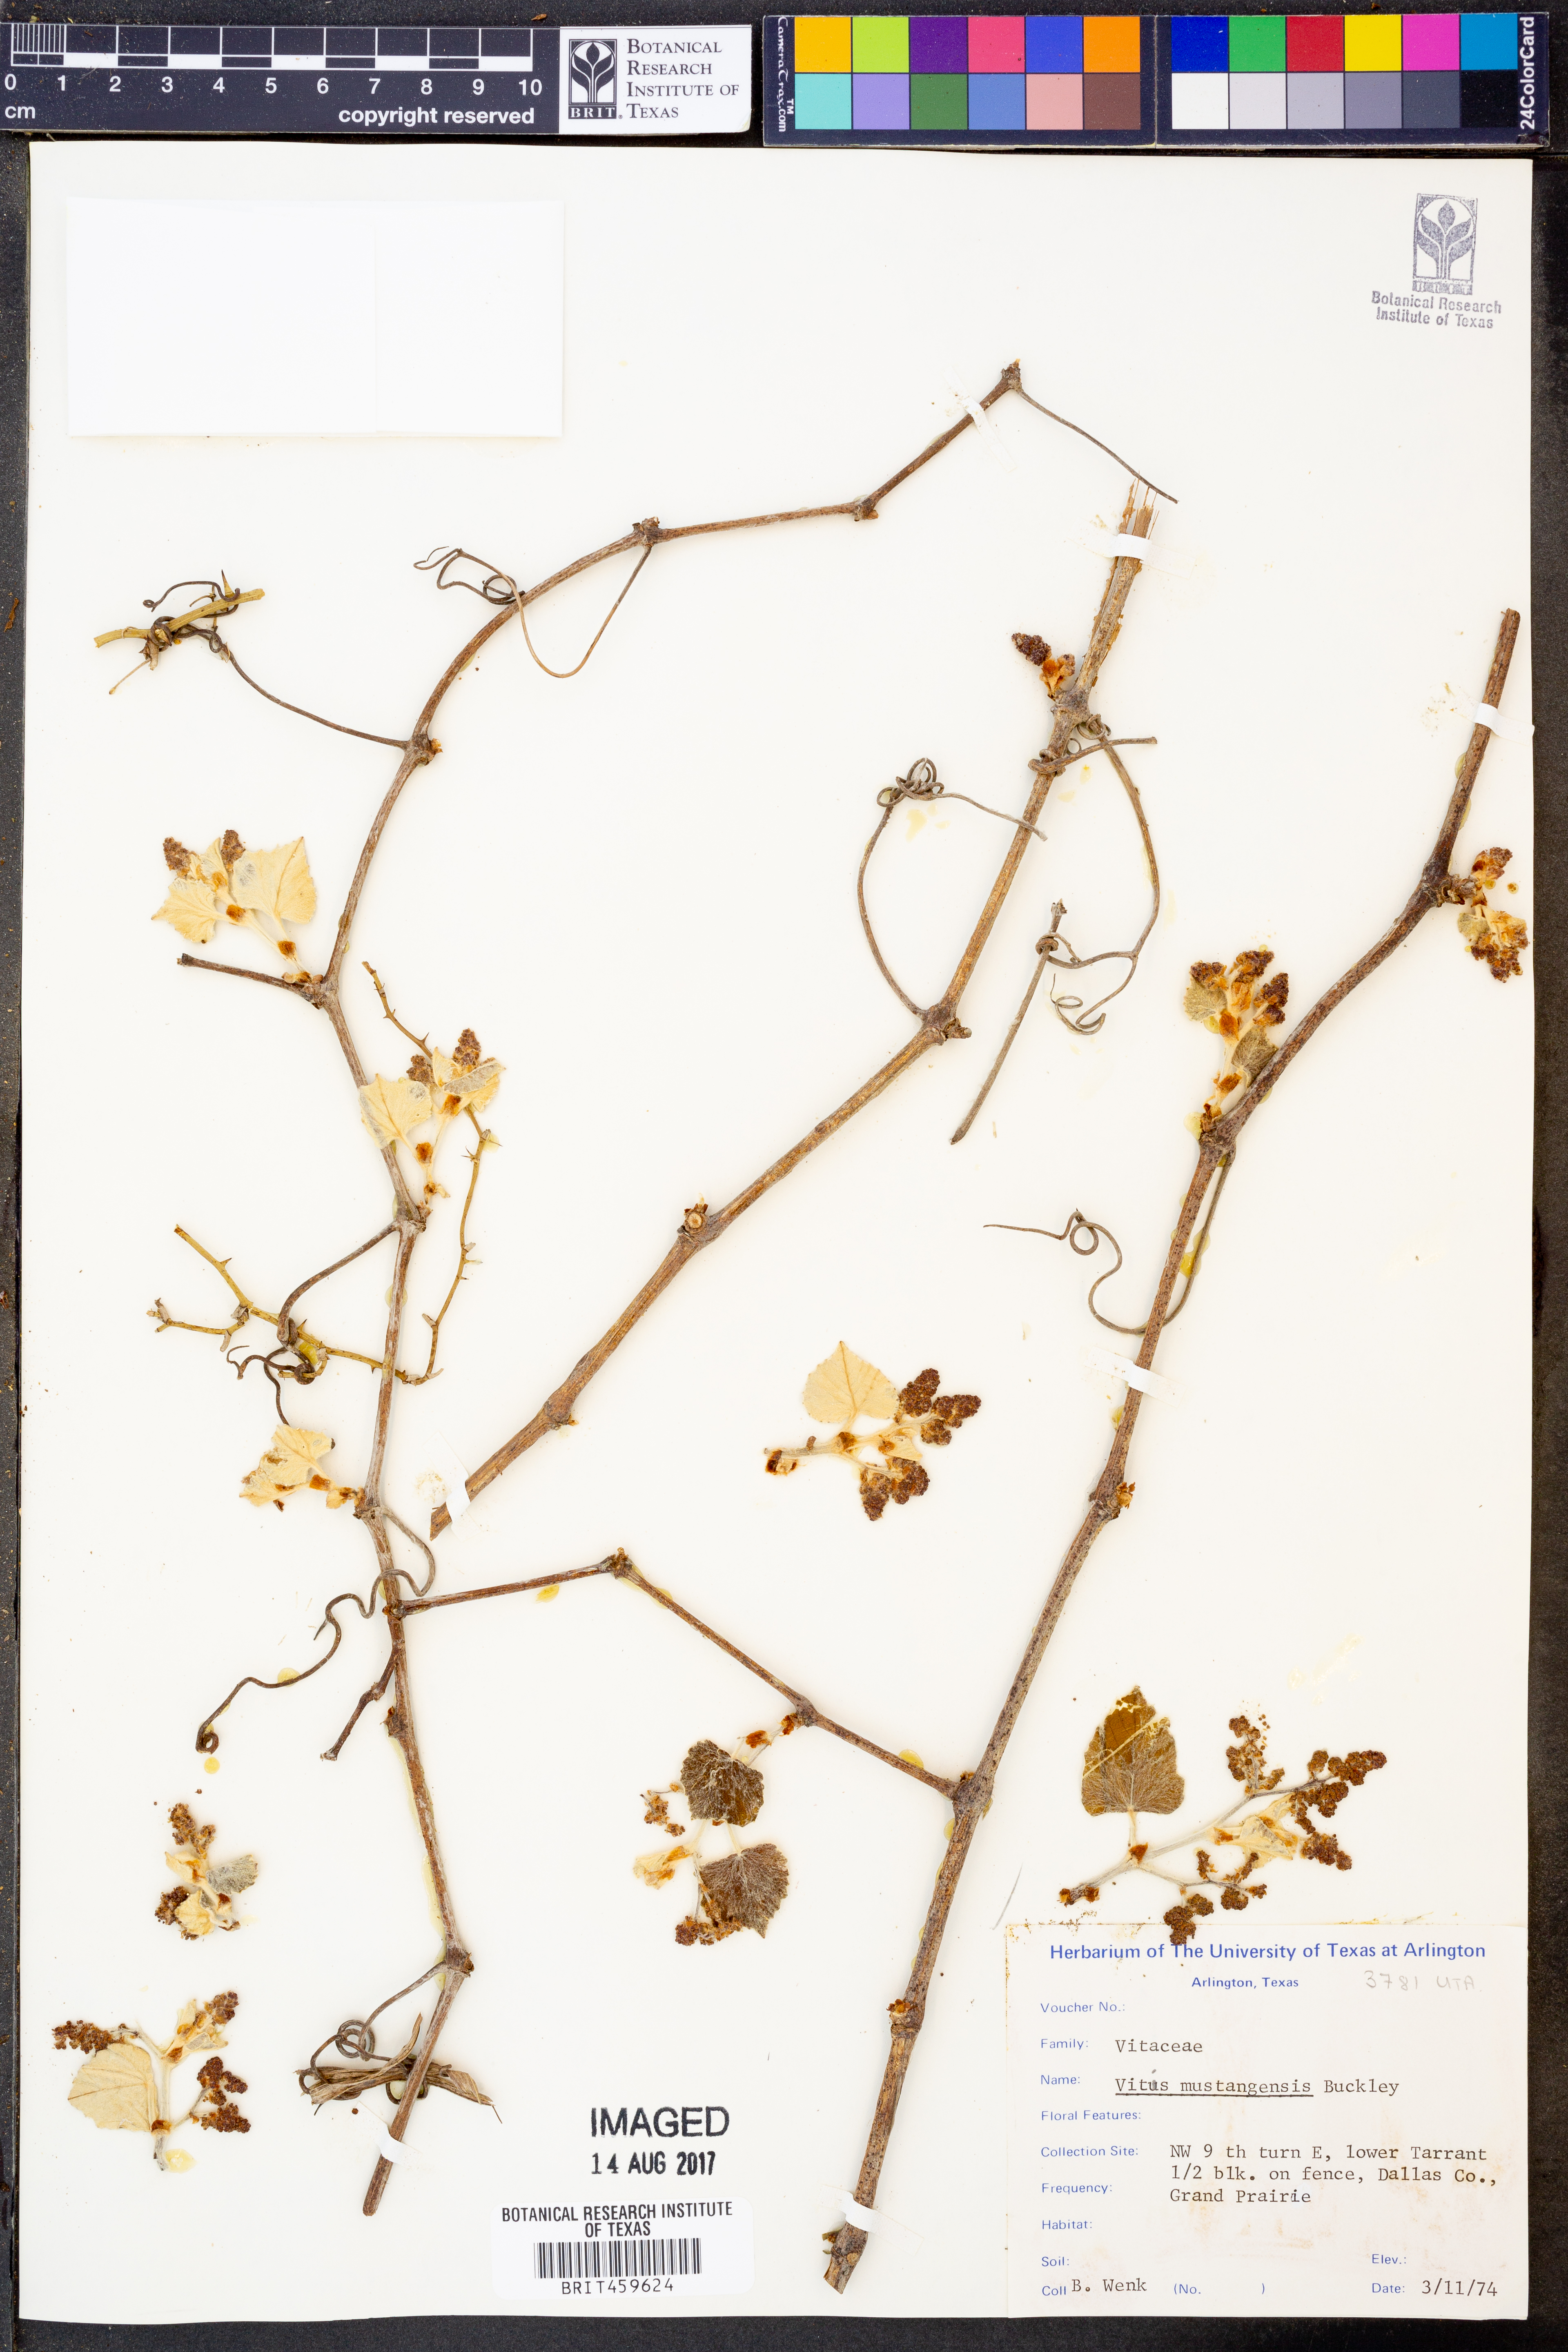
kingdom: Plantae
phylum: Tracheophyta
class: Magnoliopsida
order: Vitales
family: Vitaceae
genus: Vitis
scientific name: Vitis mustangensis
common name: Mustang grape
